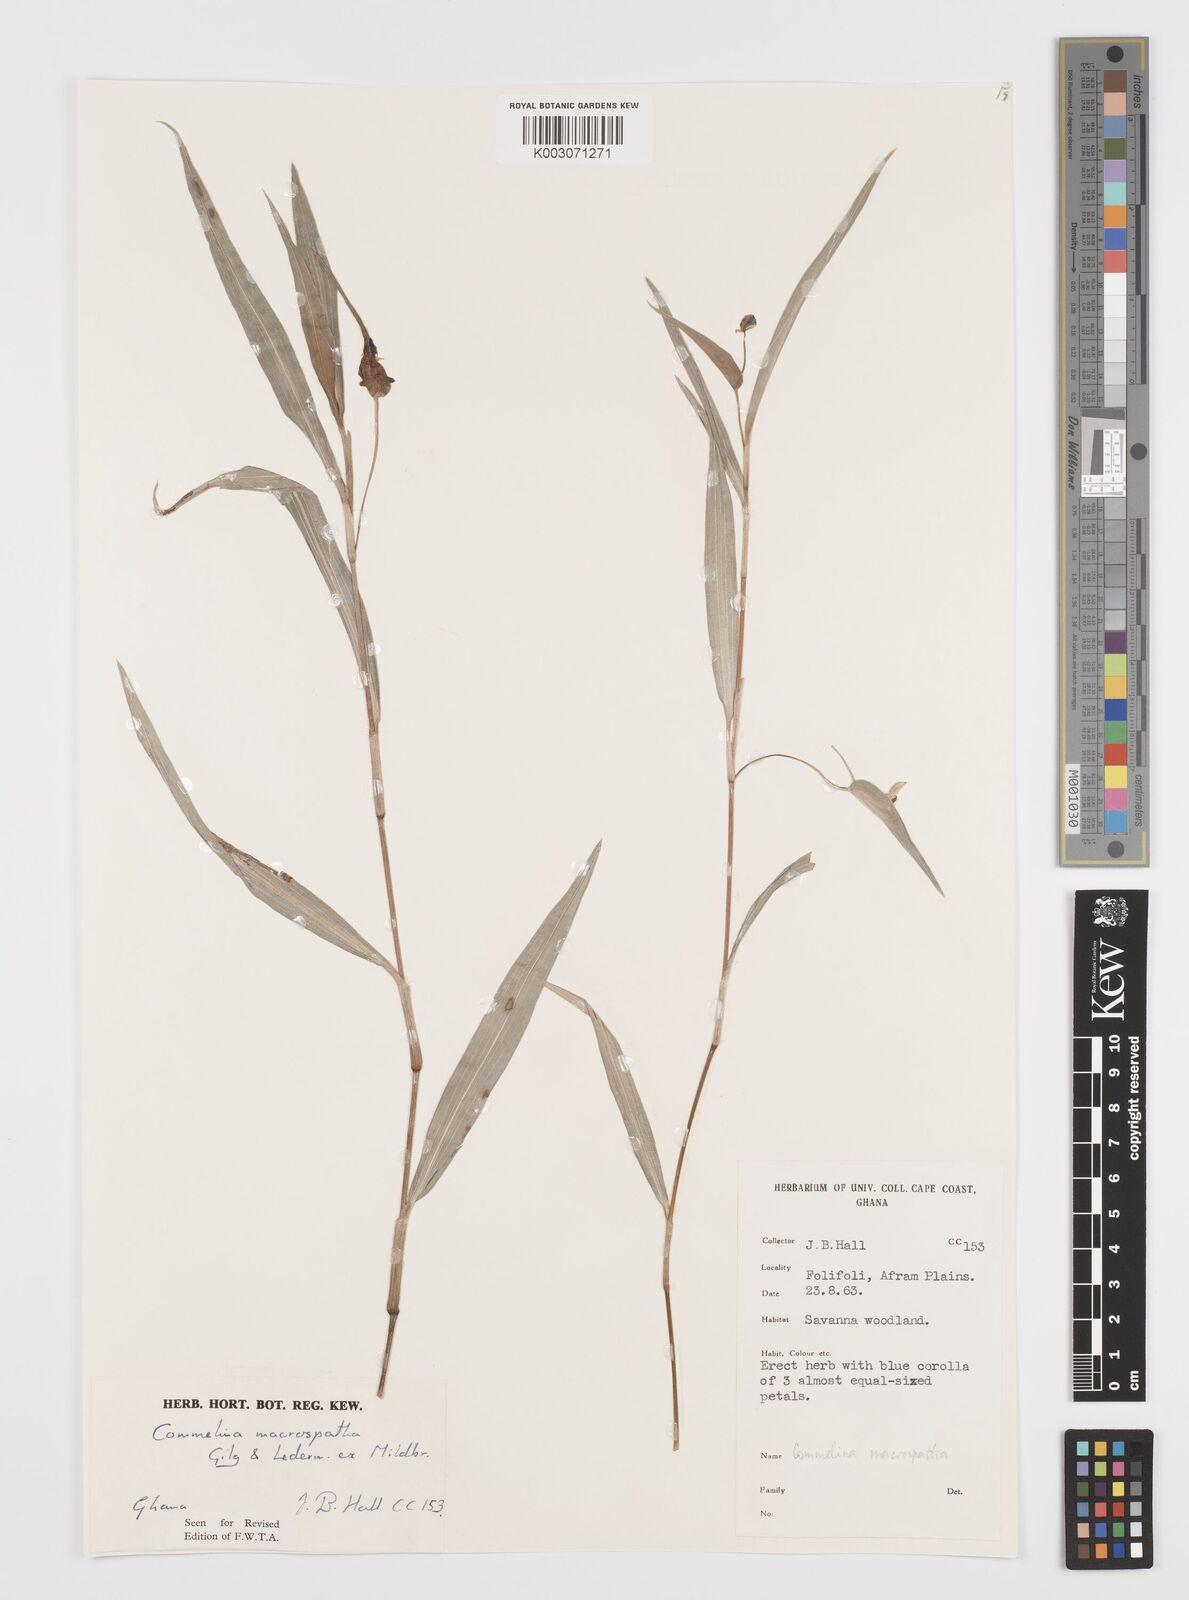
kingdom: Plantae
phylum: Tracheophyta
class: Liliopsida
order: Commelinales
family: Commelinaceae
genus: Commelina
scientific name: Commelina macrospatha
